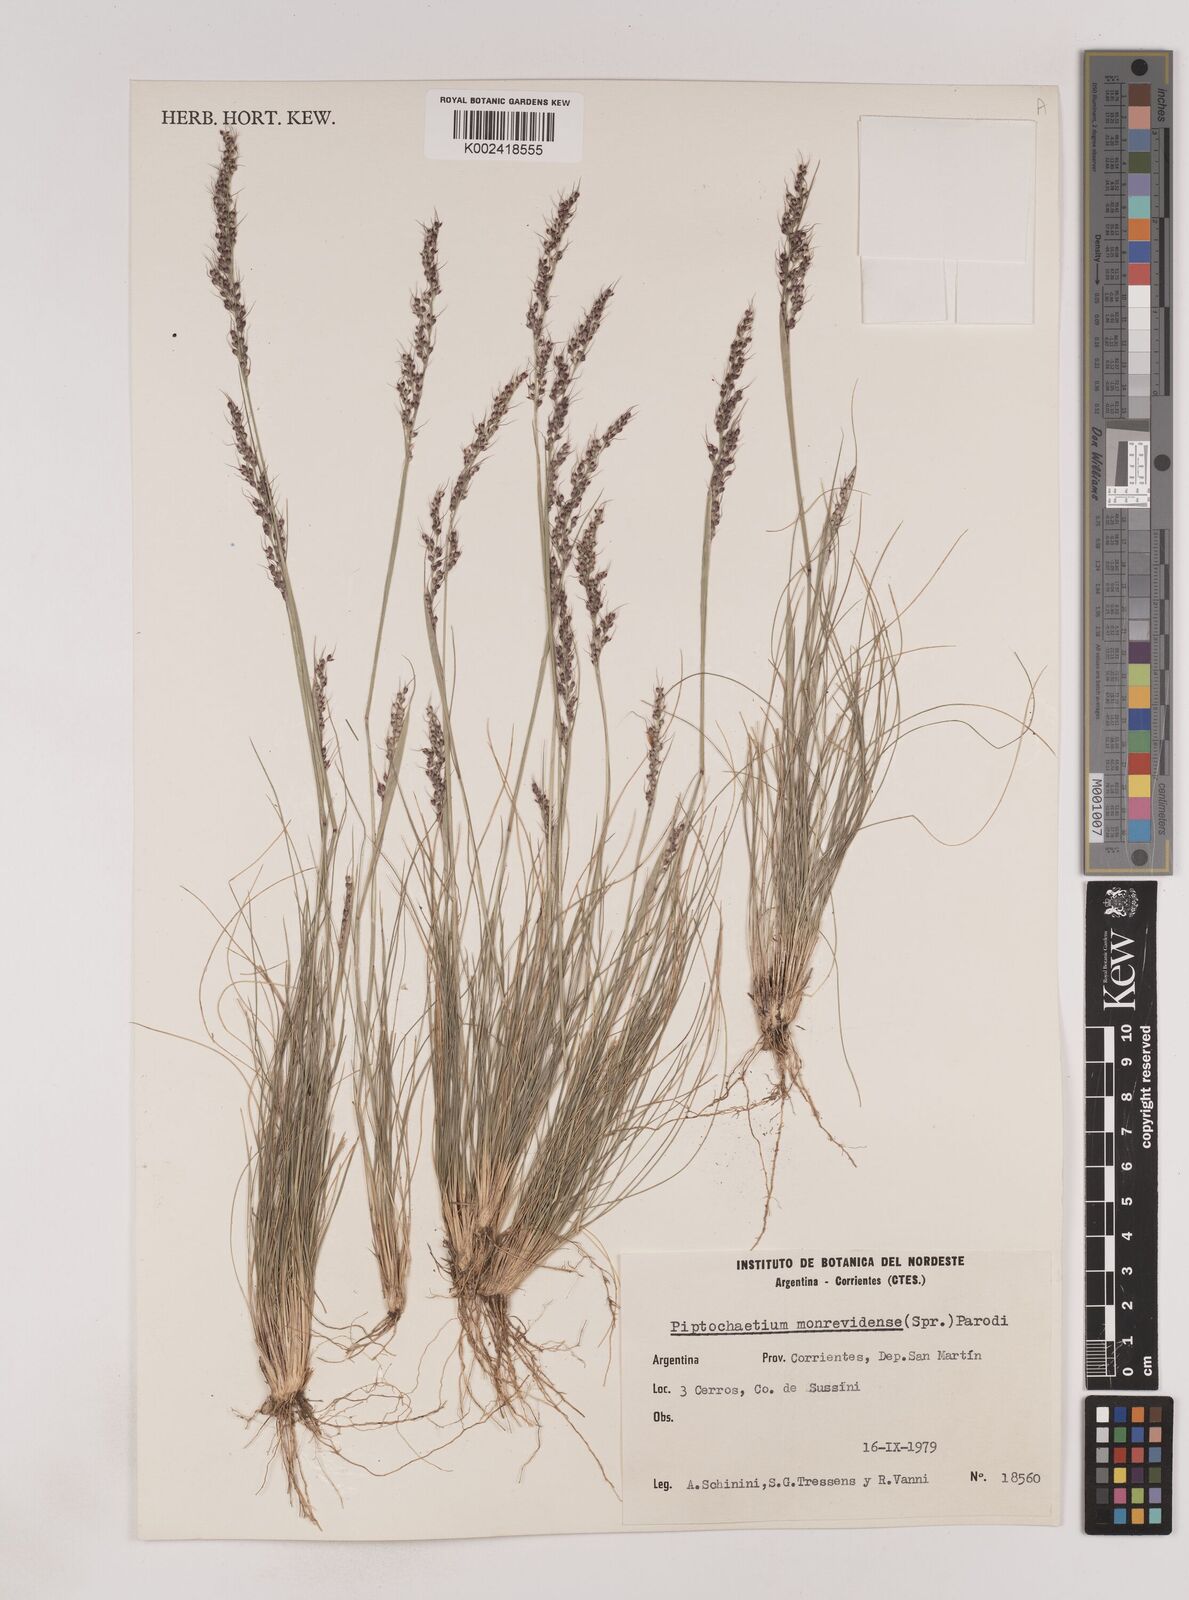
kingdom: Plantae
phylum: Tracheophyta
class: Liliopsida
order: Poales
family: Poaceae
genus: Piptochaetium
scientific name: Piptochaetium montevidense
